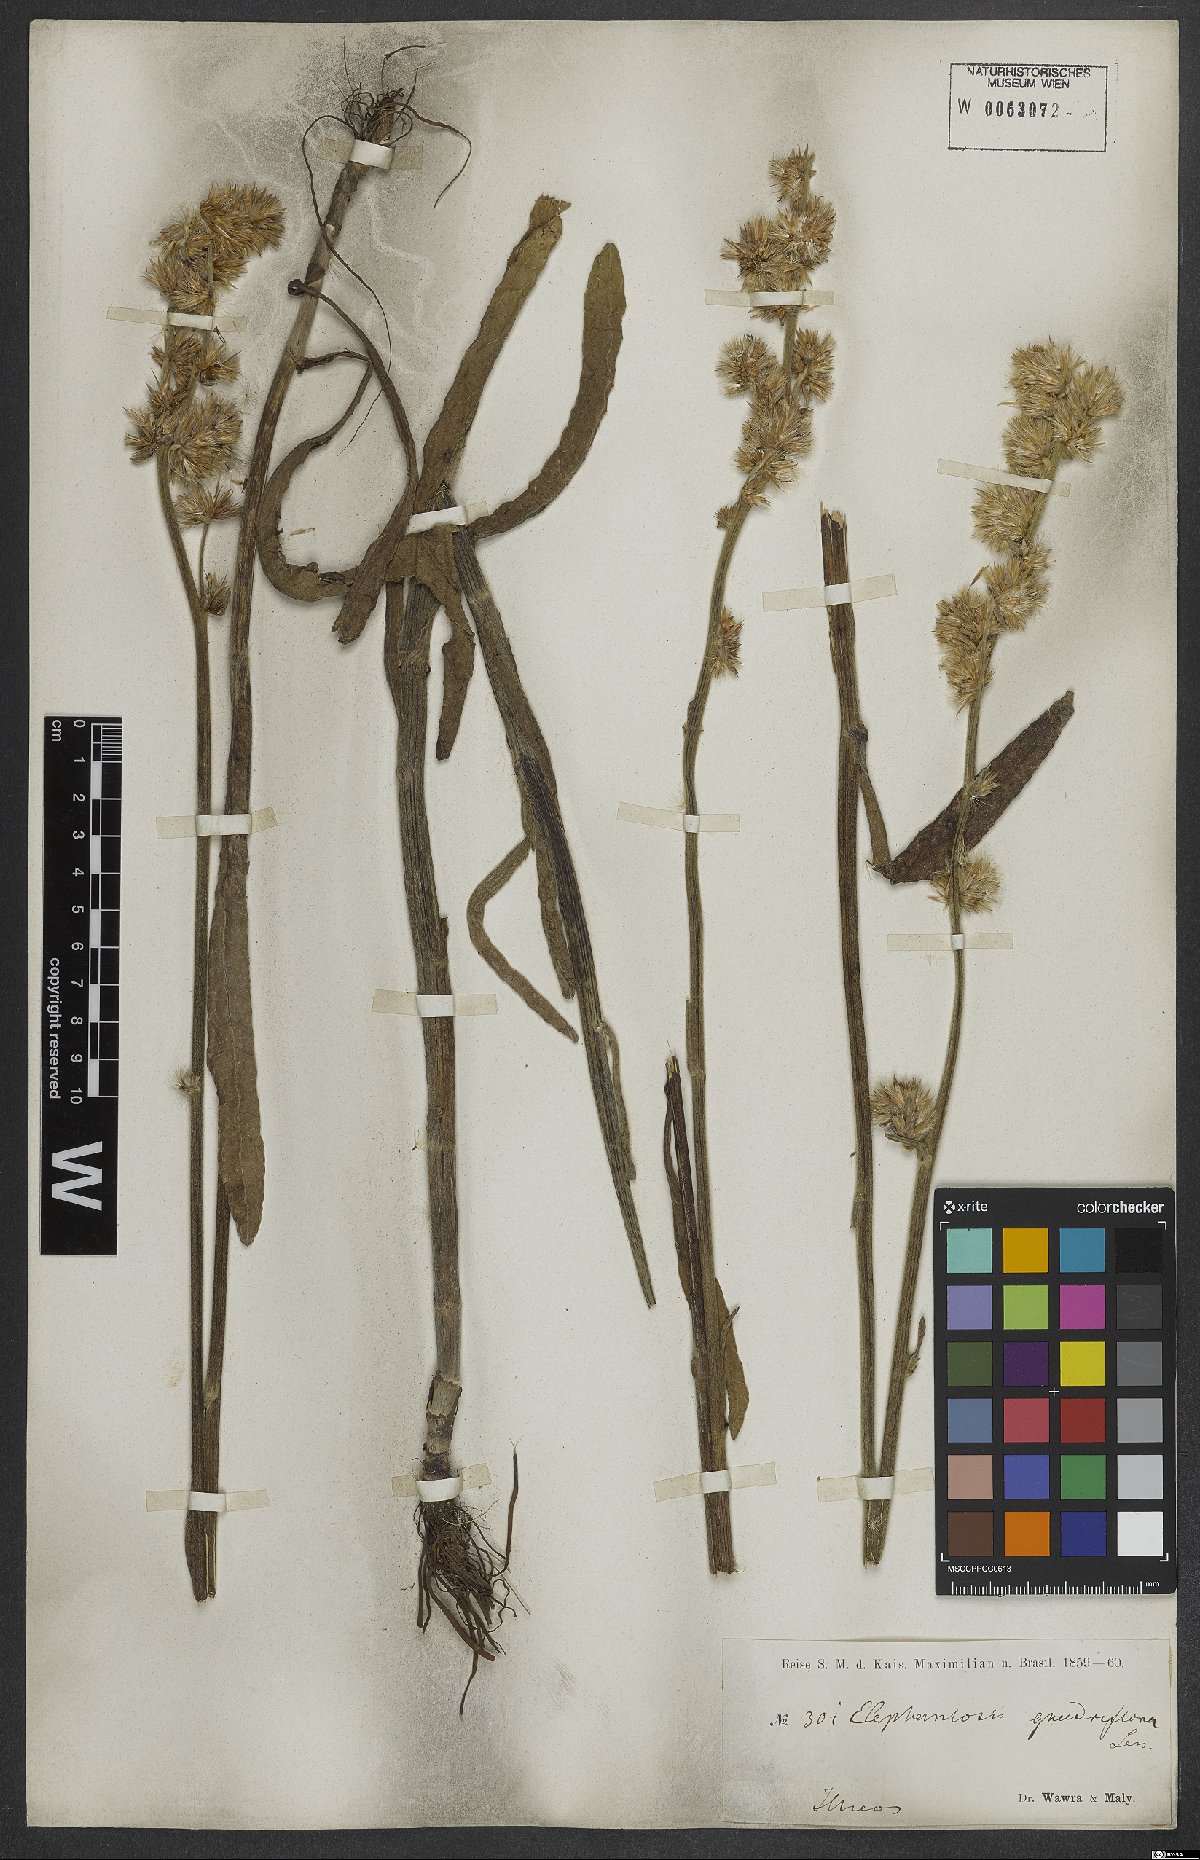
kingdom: Plantae
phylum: Tracheophyta
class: Magnoliopsida
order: Asterales
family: Asteraceae
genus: Orthopappus
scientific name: Orthopappus angustifolius
